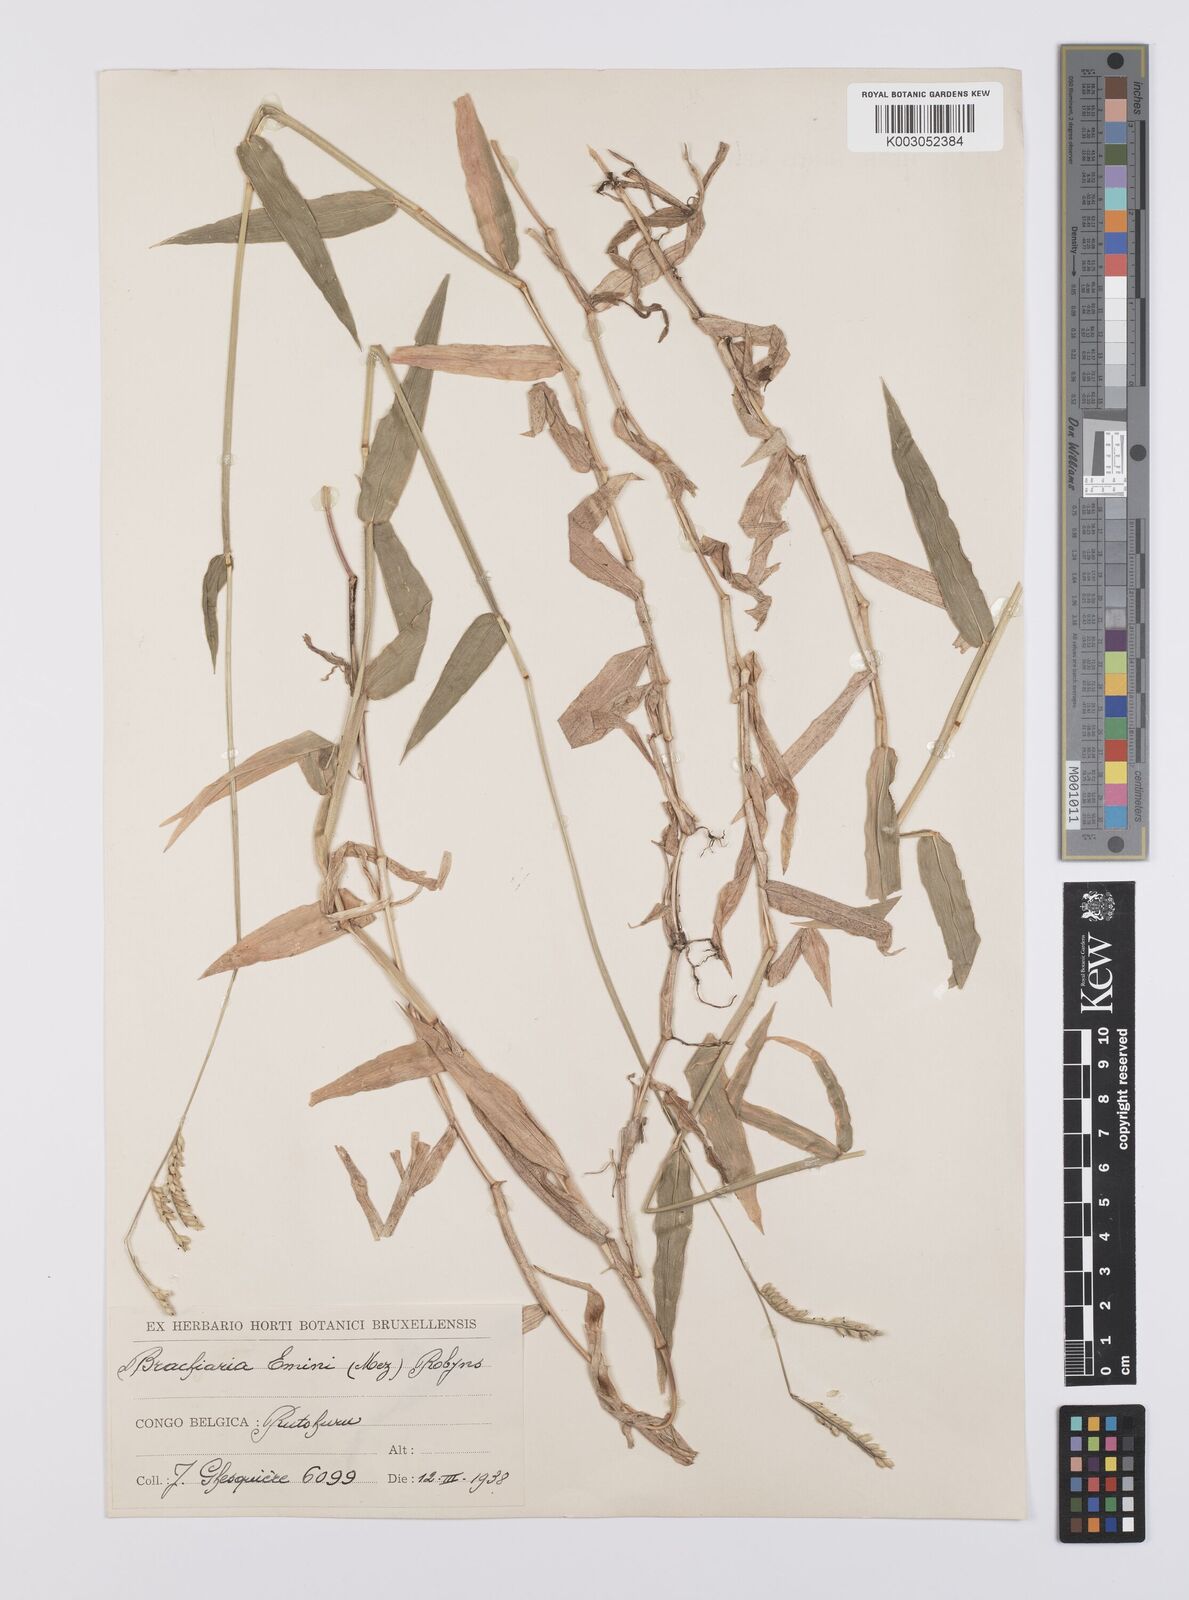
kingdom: Plantae
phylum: Tracheophyta
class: Liliopsida
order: Poales
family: Poaceae
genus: Urochloa
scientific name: Urochloa eminii
